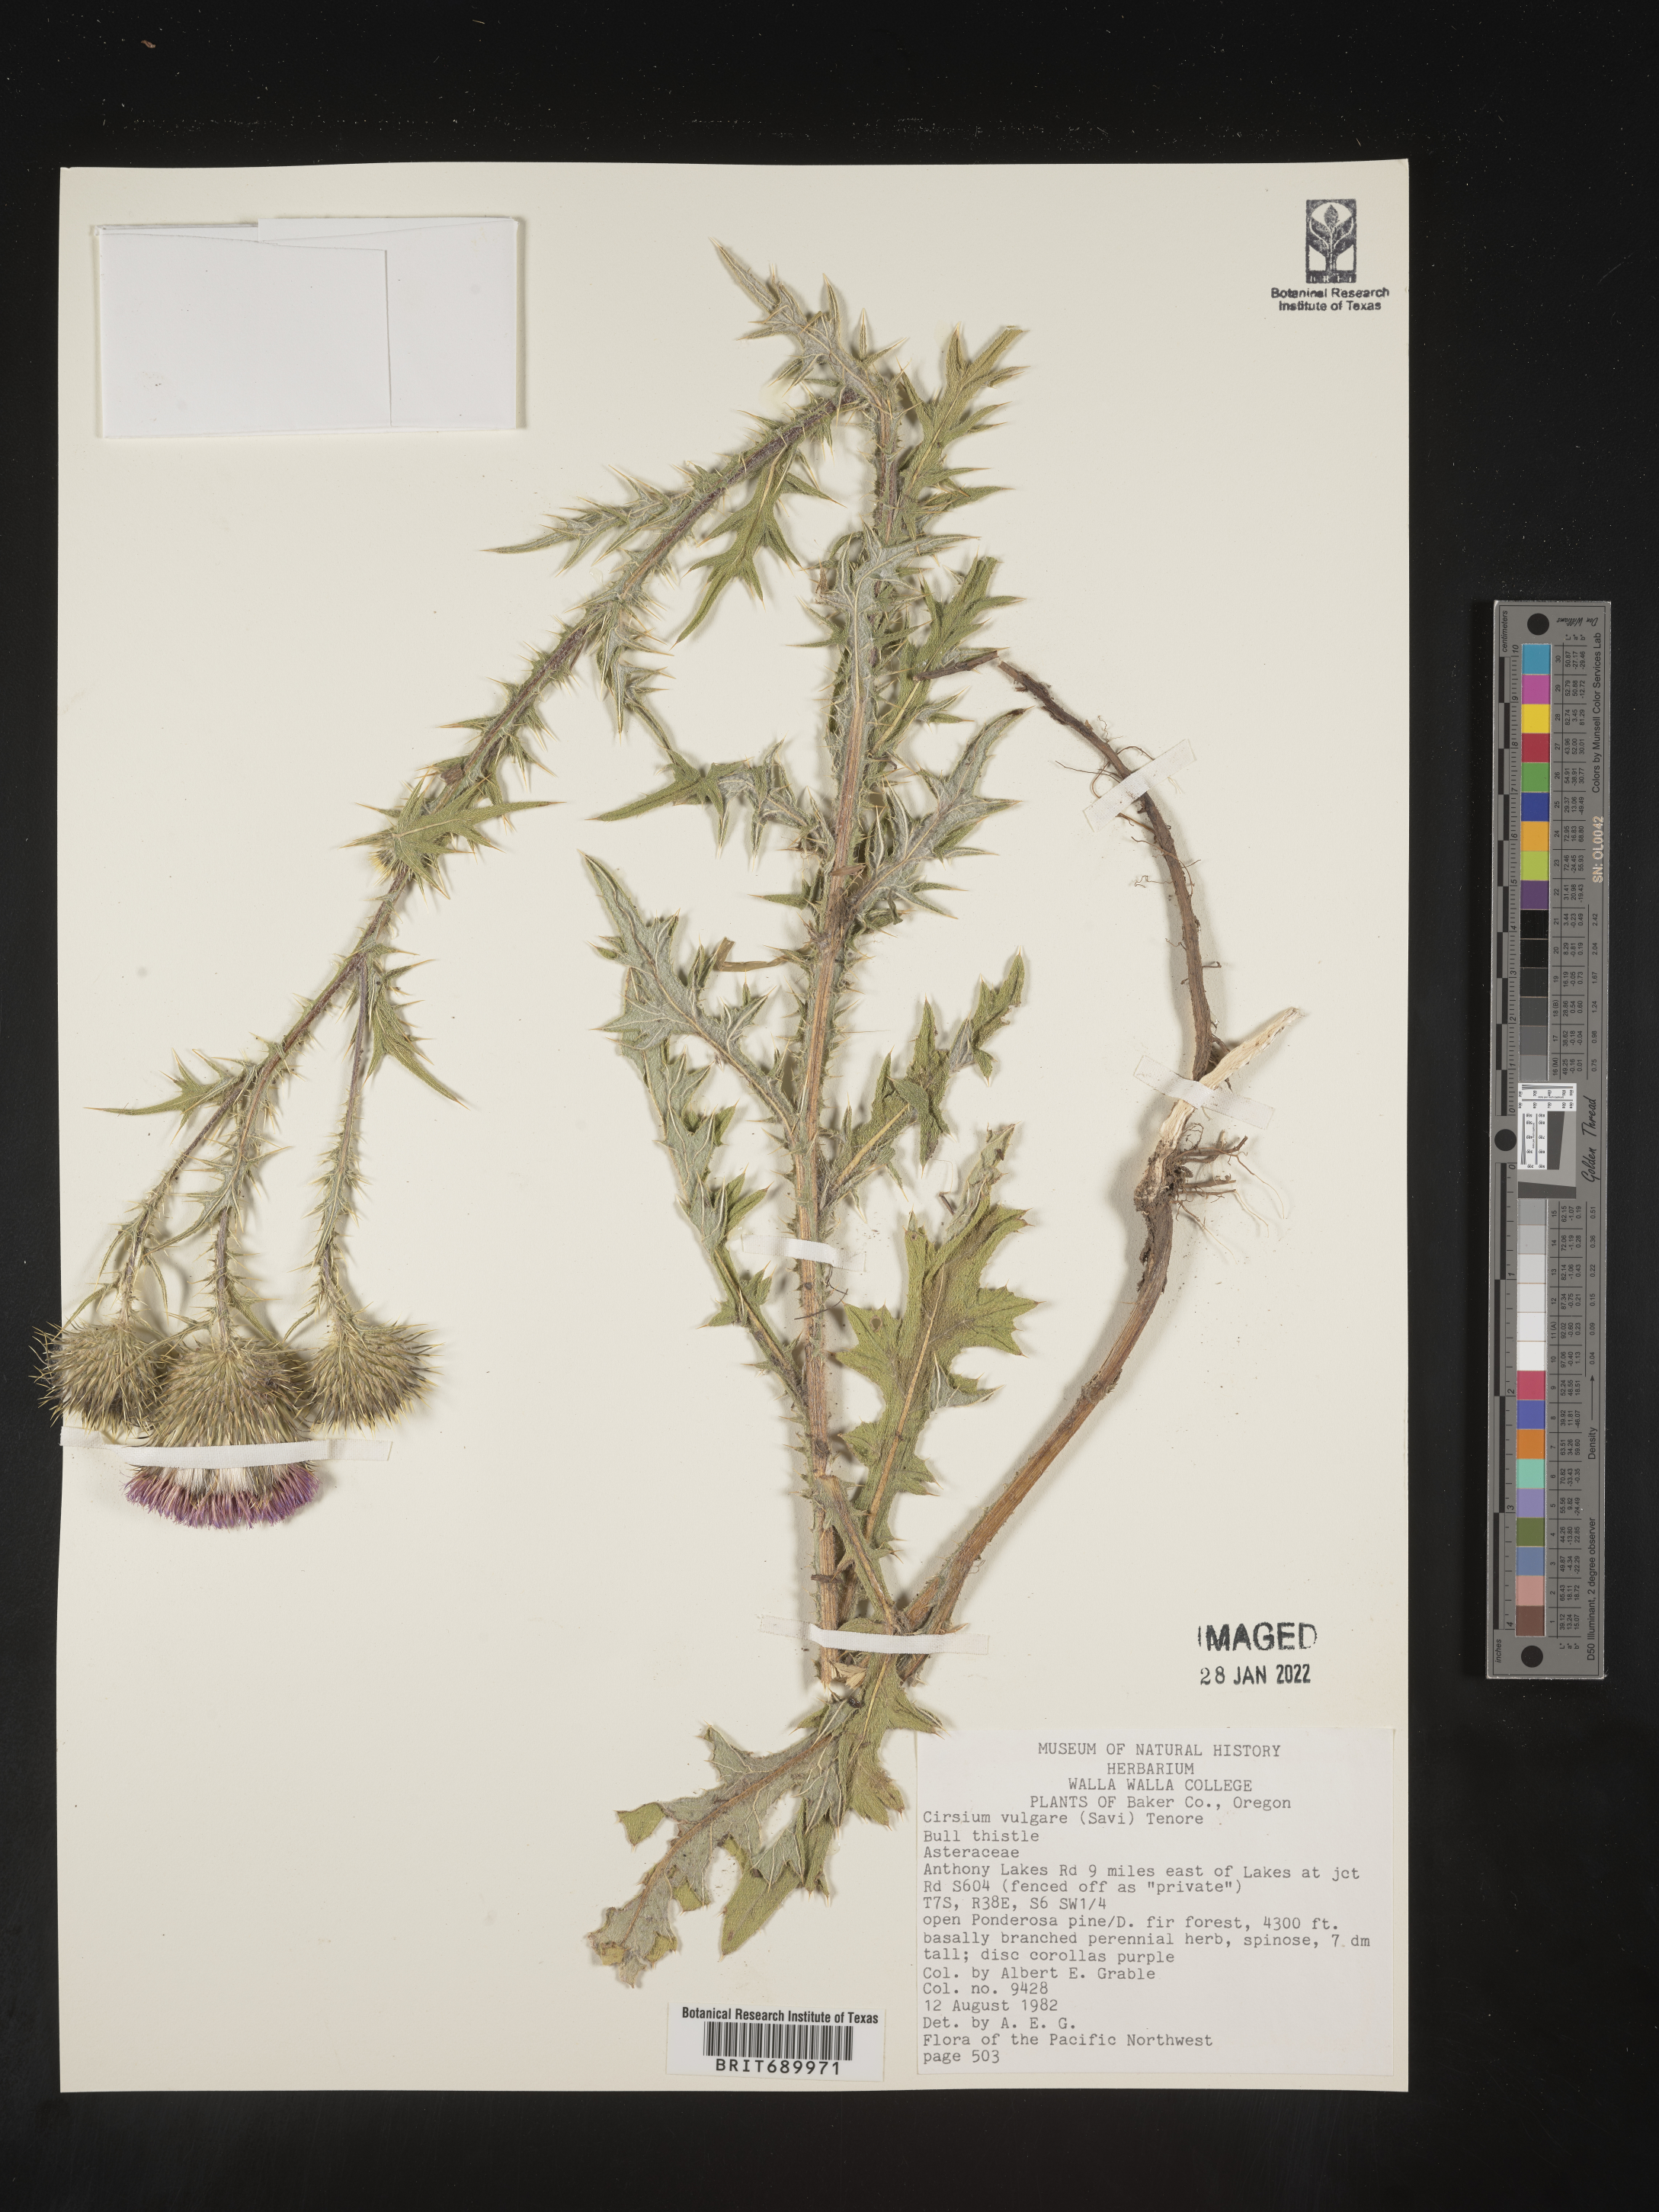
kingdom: Plantae
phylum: Tracheophyta
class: Magnoliopsida
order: Asterales
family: Asteraceae
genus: Cirsium
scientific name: Cirsium vulgare
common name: Bull thistle
